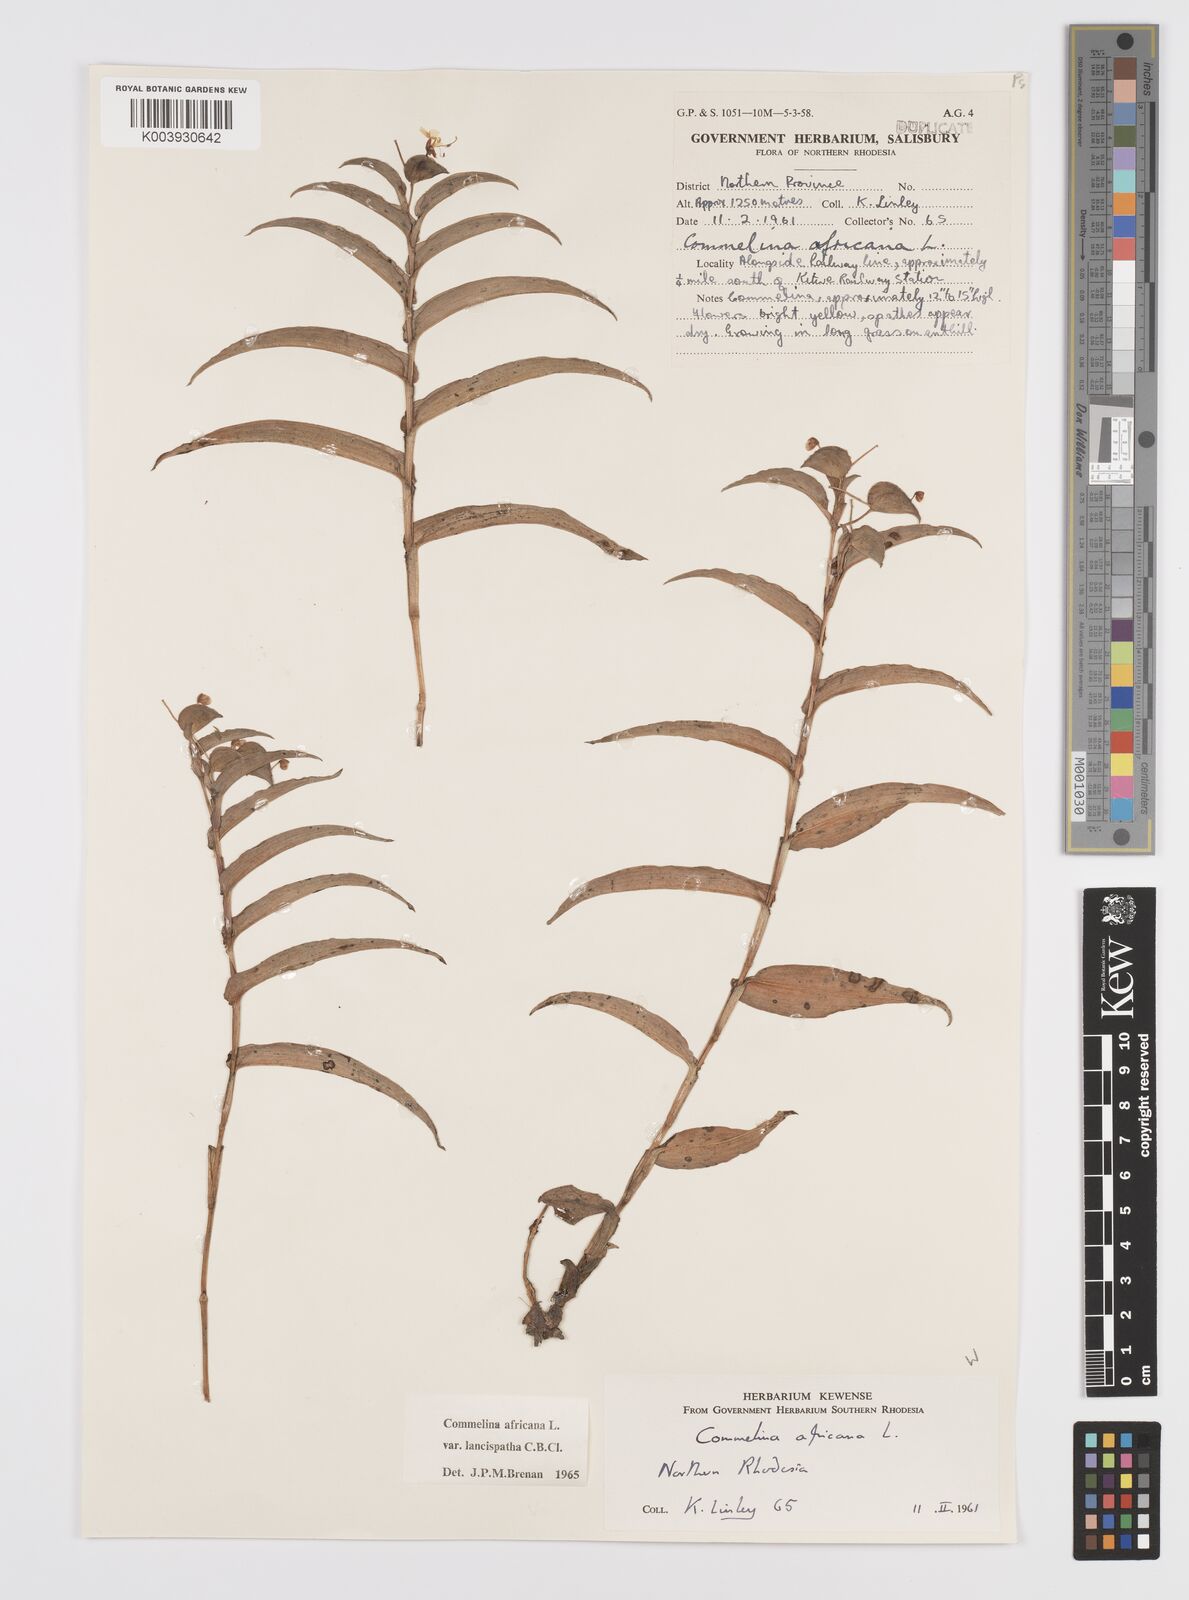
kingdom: Plantae
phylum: Tracheophyta
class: Liliopsida
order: Commelinales
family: Commelinaceae
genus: Commelina
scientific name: Commelina africana
